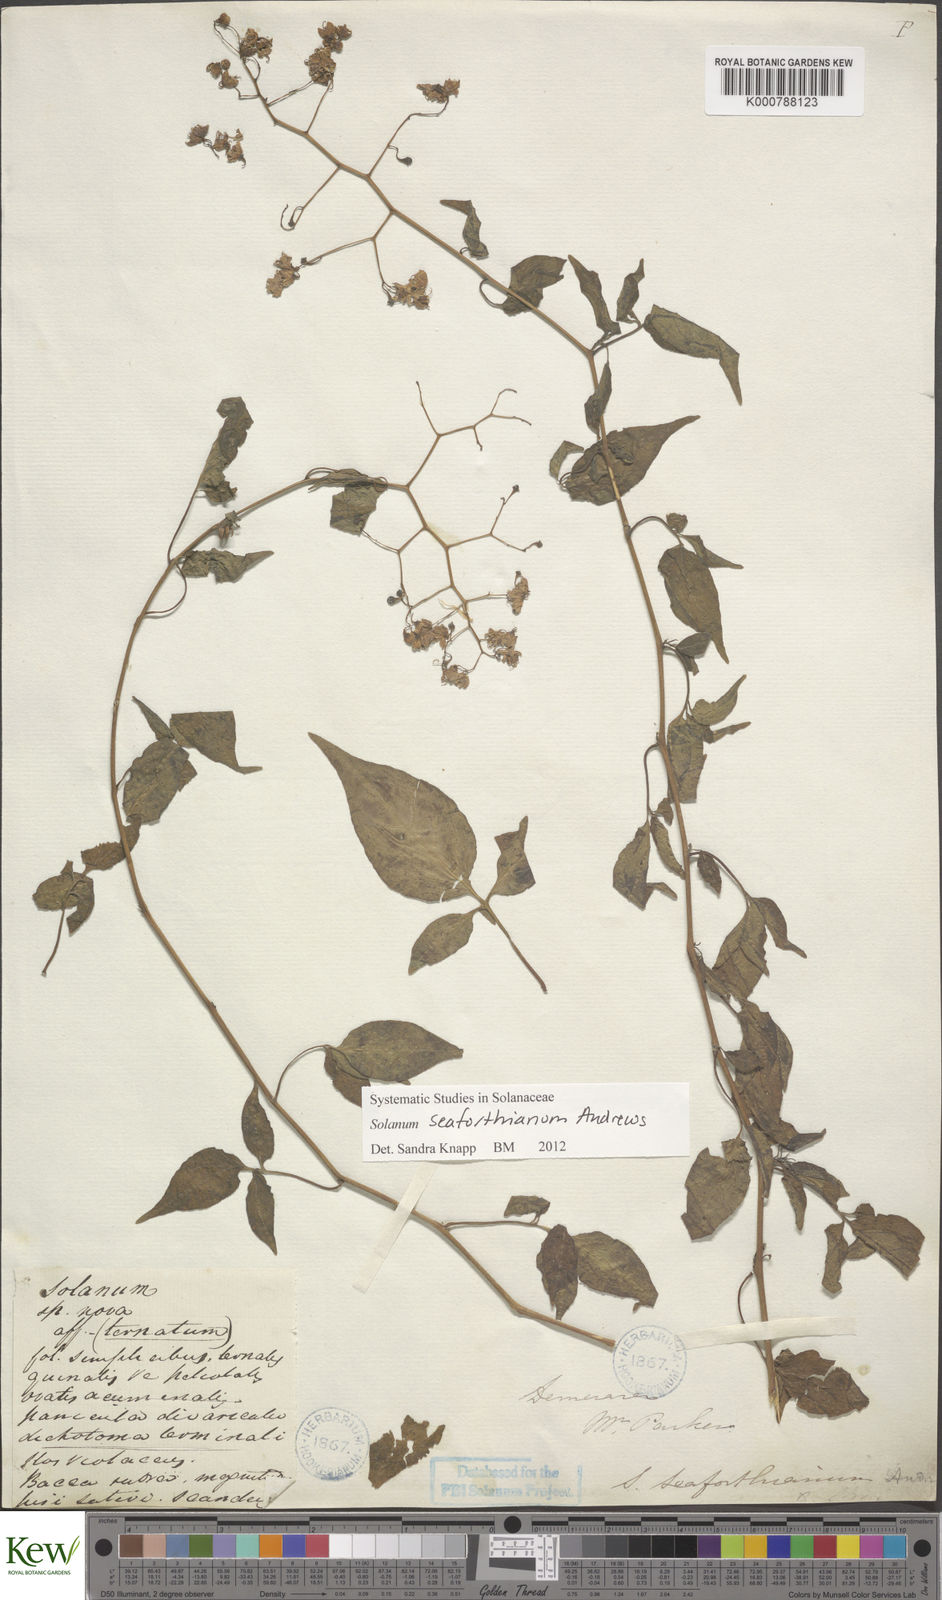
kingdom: Plantae
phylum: Tracheophyta
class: Magnoliopsida
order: Solanales
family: Solanaceae
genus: Solanum
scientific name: Solanum seaforthianum
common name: Brazilian nightshade
